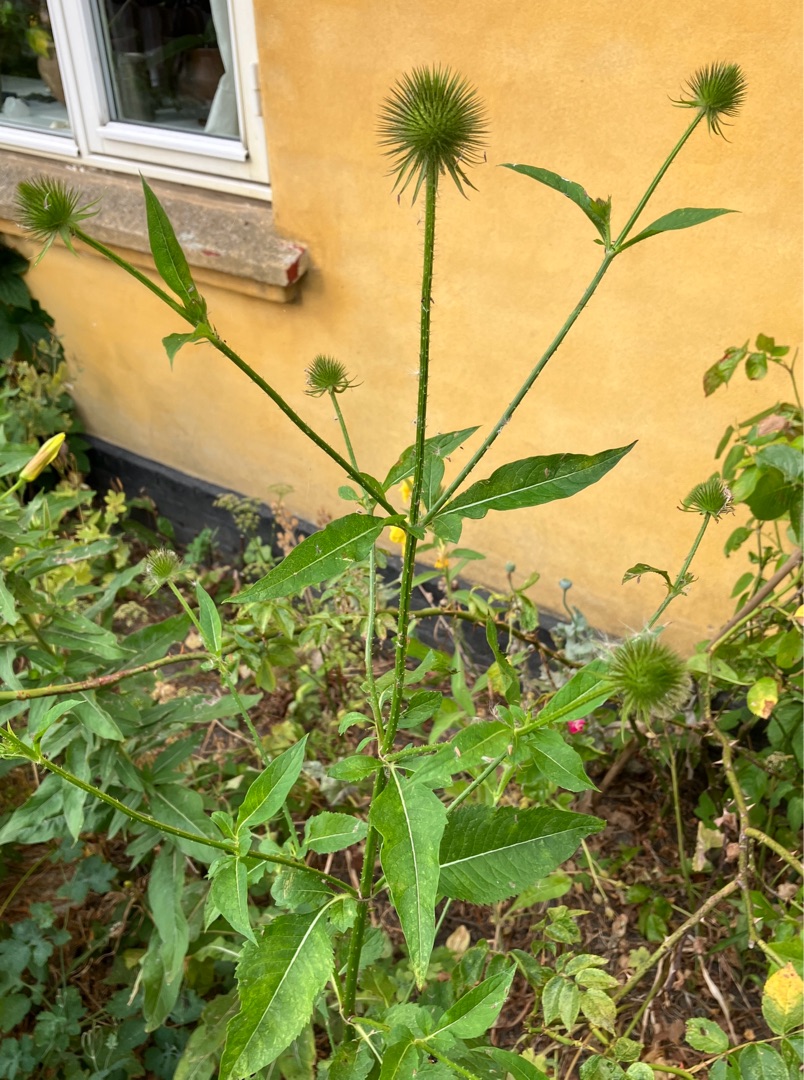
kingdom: Plantae
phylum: Tracheophyta
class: Magnoliopsida
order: Dipsacales
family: Caprifoliaceae
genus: Dipsacus
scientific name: Dipsacus strigosus
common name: Pindsvin-kartebolle
